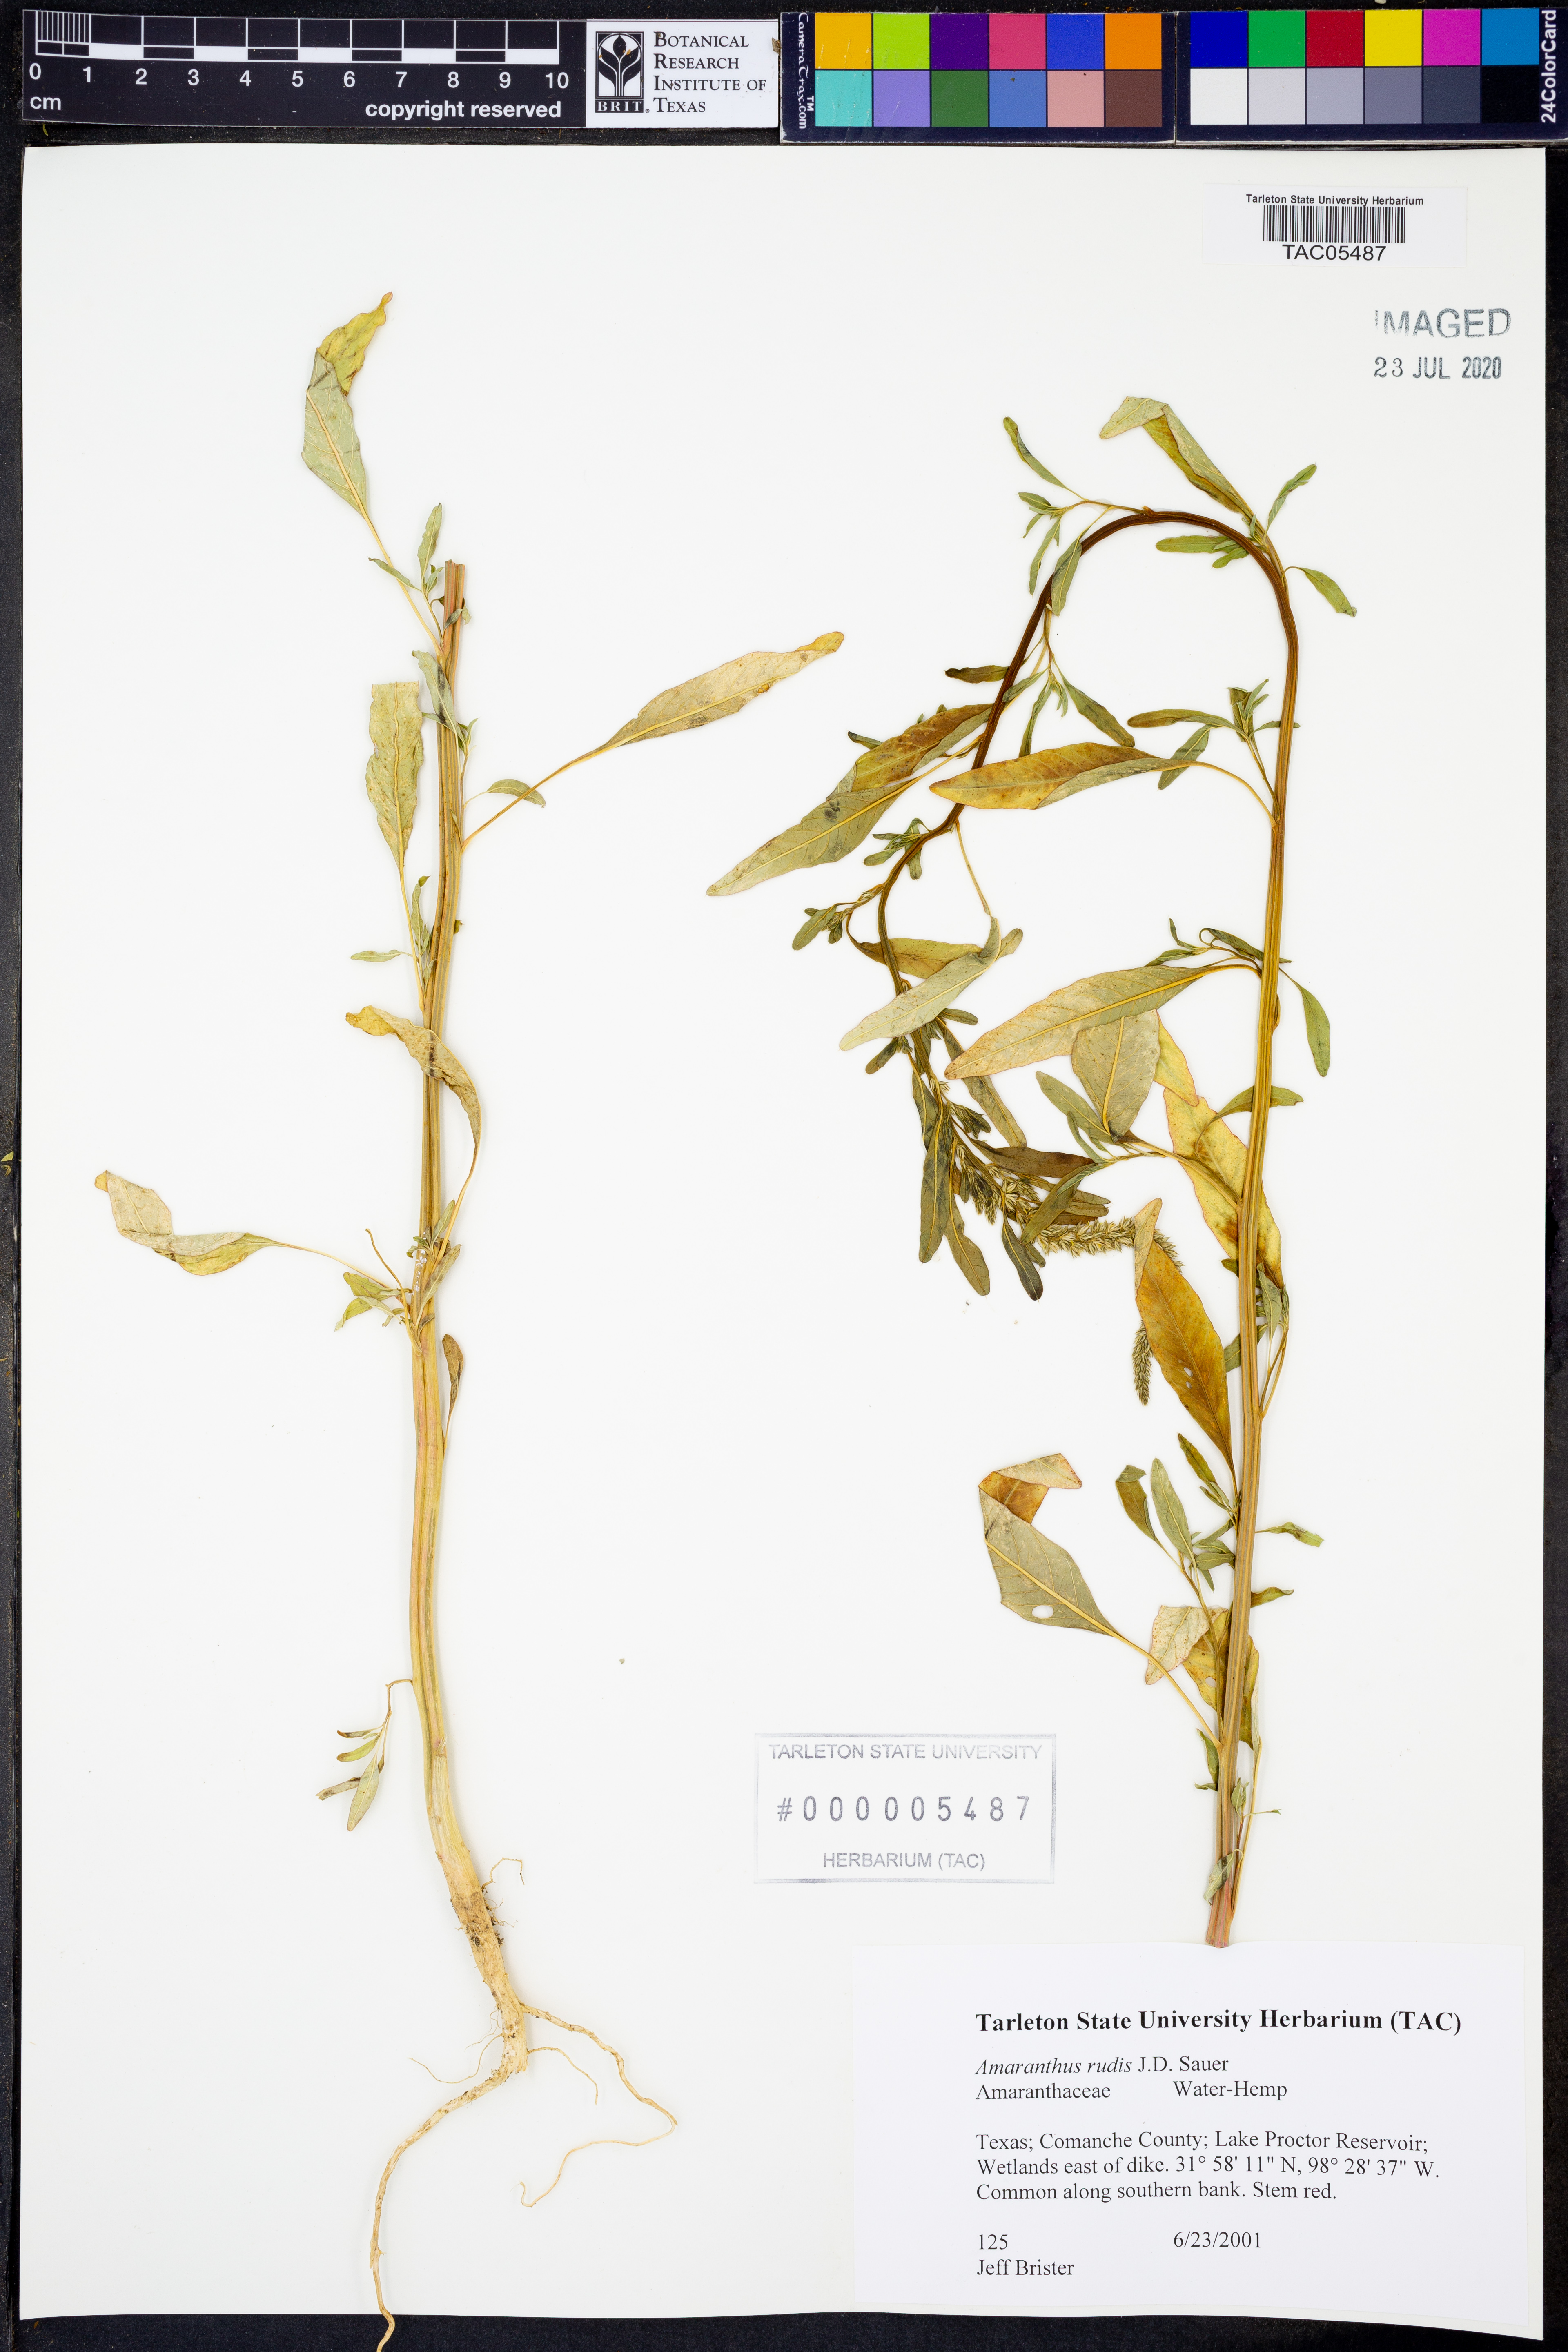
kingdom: Plantae
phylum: Tracheophyta
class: Magnoliopsida
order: Caryophyllales
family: Amaranthaceae
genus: Amaranthus
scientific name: Amaranthus tuberculatus
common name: Rough-fruit amaranth
